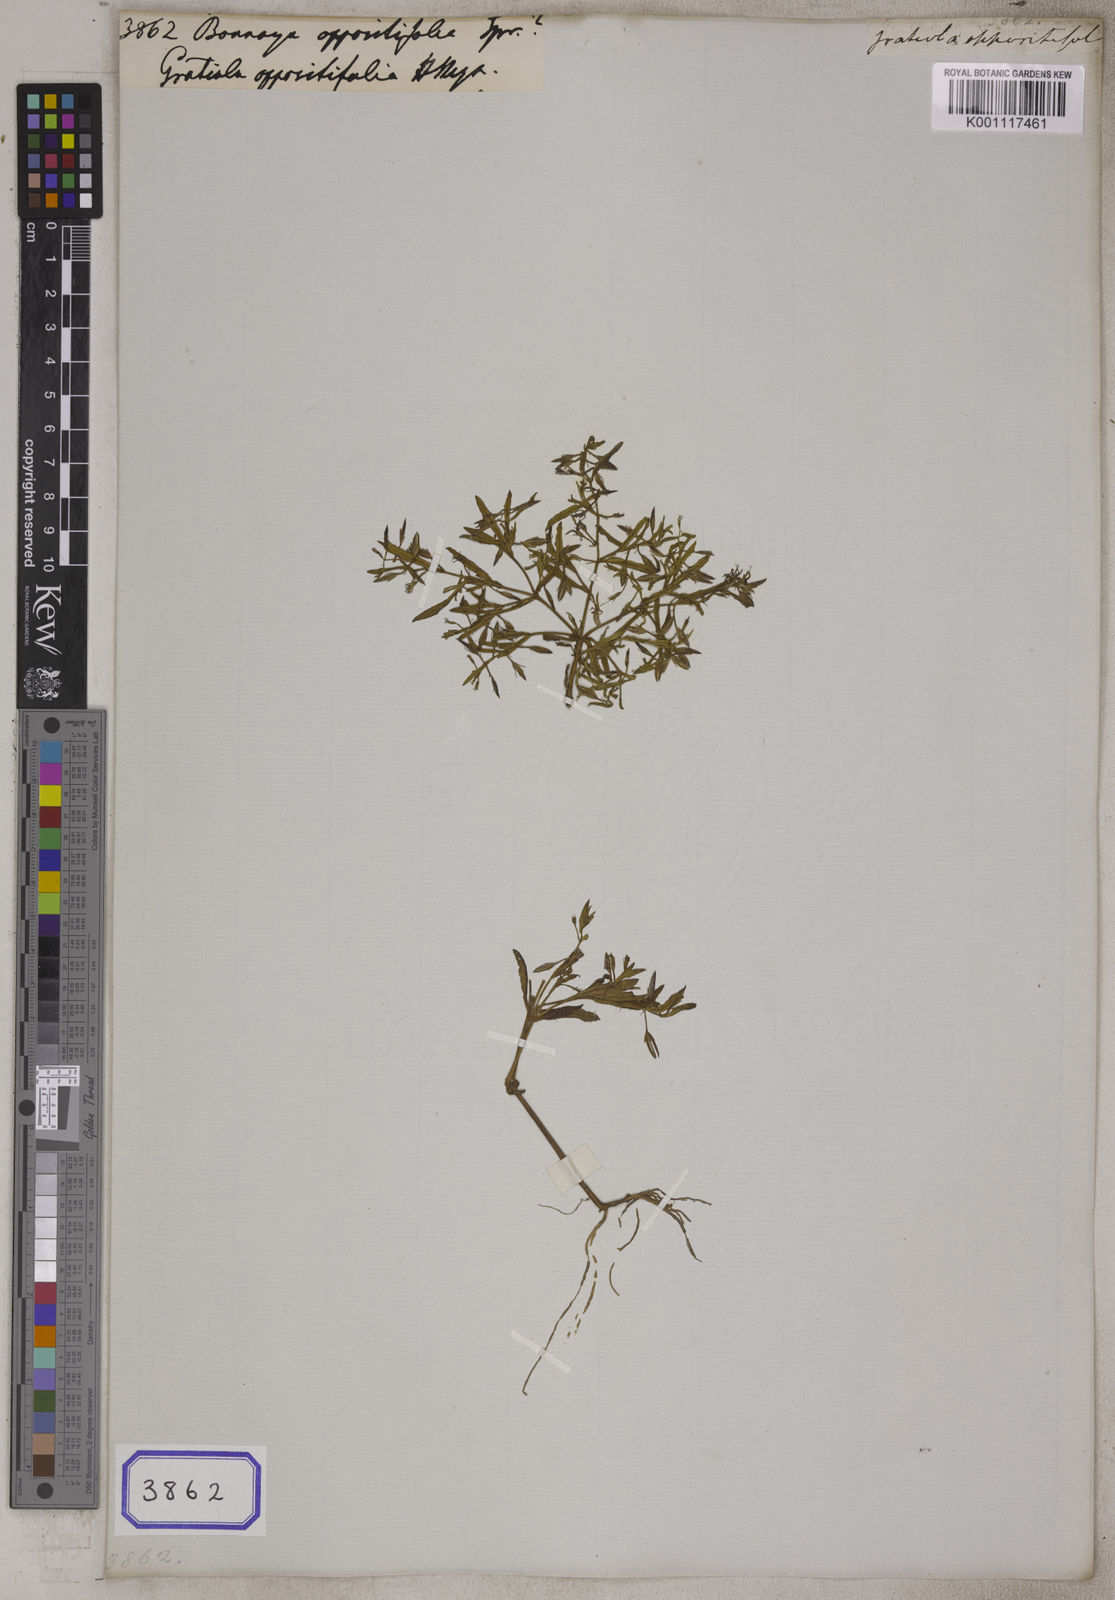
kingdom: Plantae
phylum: Tracheophyta
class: Magnoliopsida
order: Lamiales
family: Linderniaceae
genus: Bonnaya
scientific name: Bonnaya oppositifolia
